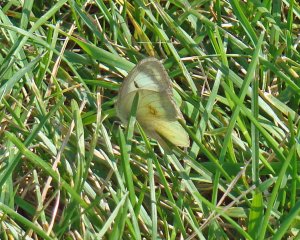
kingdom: Animalia
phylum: Arthropoda
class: Insecta
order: Lepidoptera
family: Pieridae
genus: Colias
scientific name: Colias philodice
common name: Clouded Sulphur
